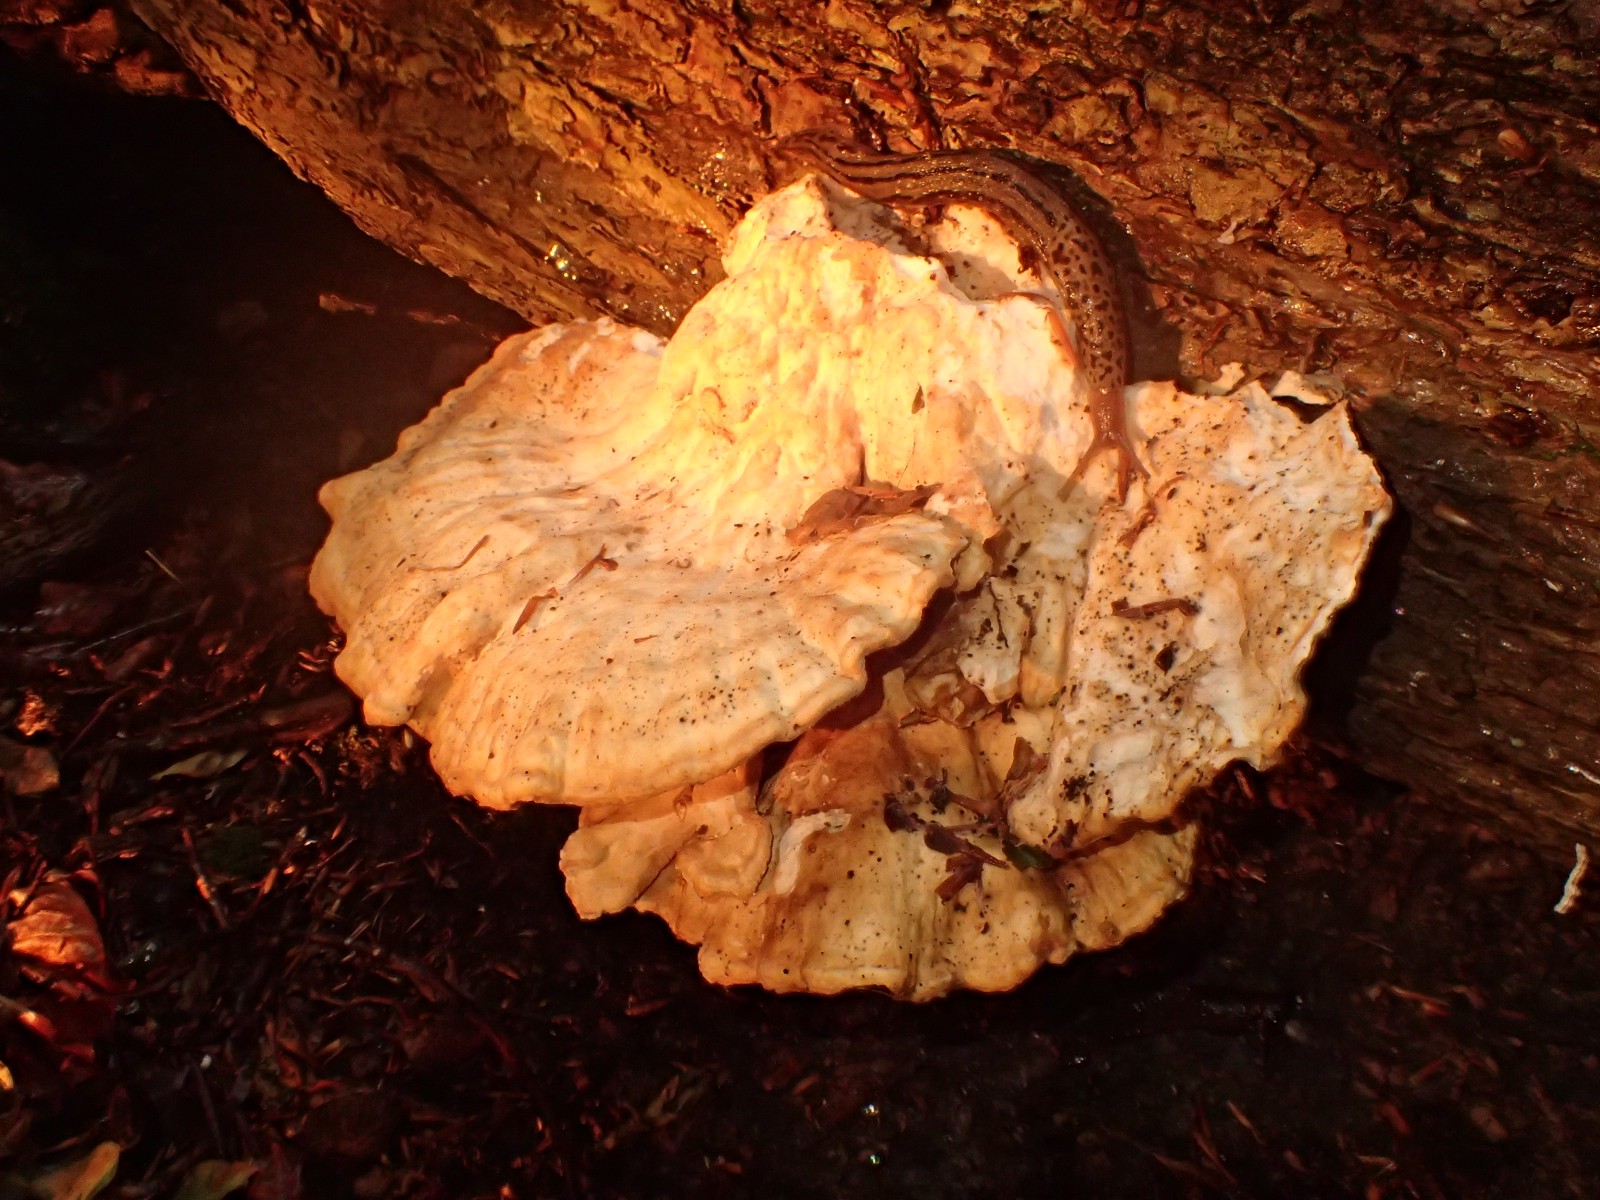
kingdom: Fungi
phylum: Basidiomycota
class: Agaricomycetes
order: Polyporales
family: Laetiporaceae
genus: Laetiporus
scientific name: Laetiporus sulphureus
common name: svovlporesvamp
